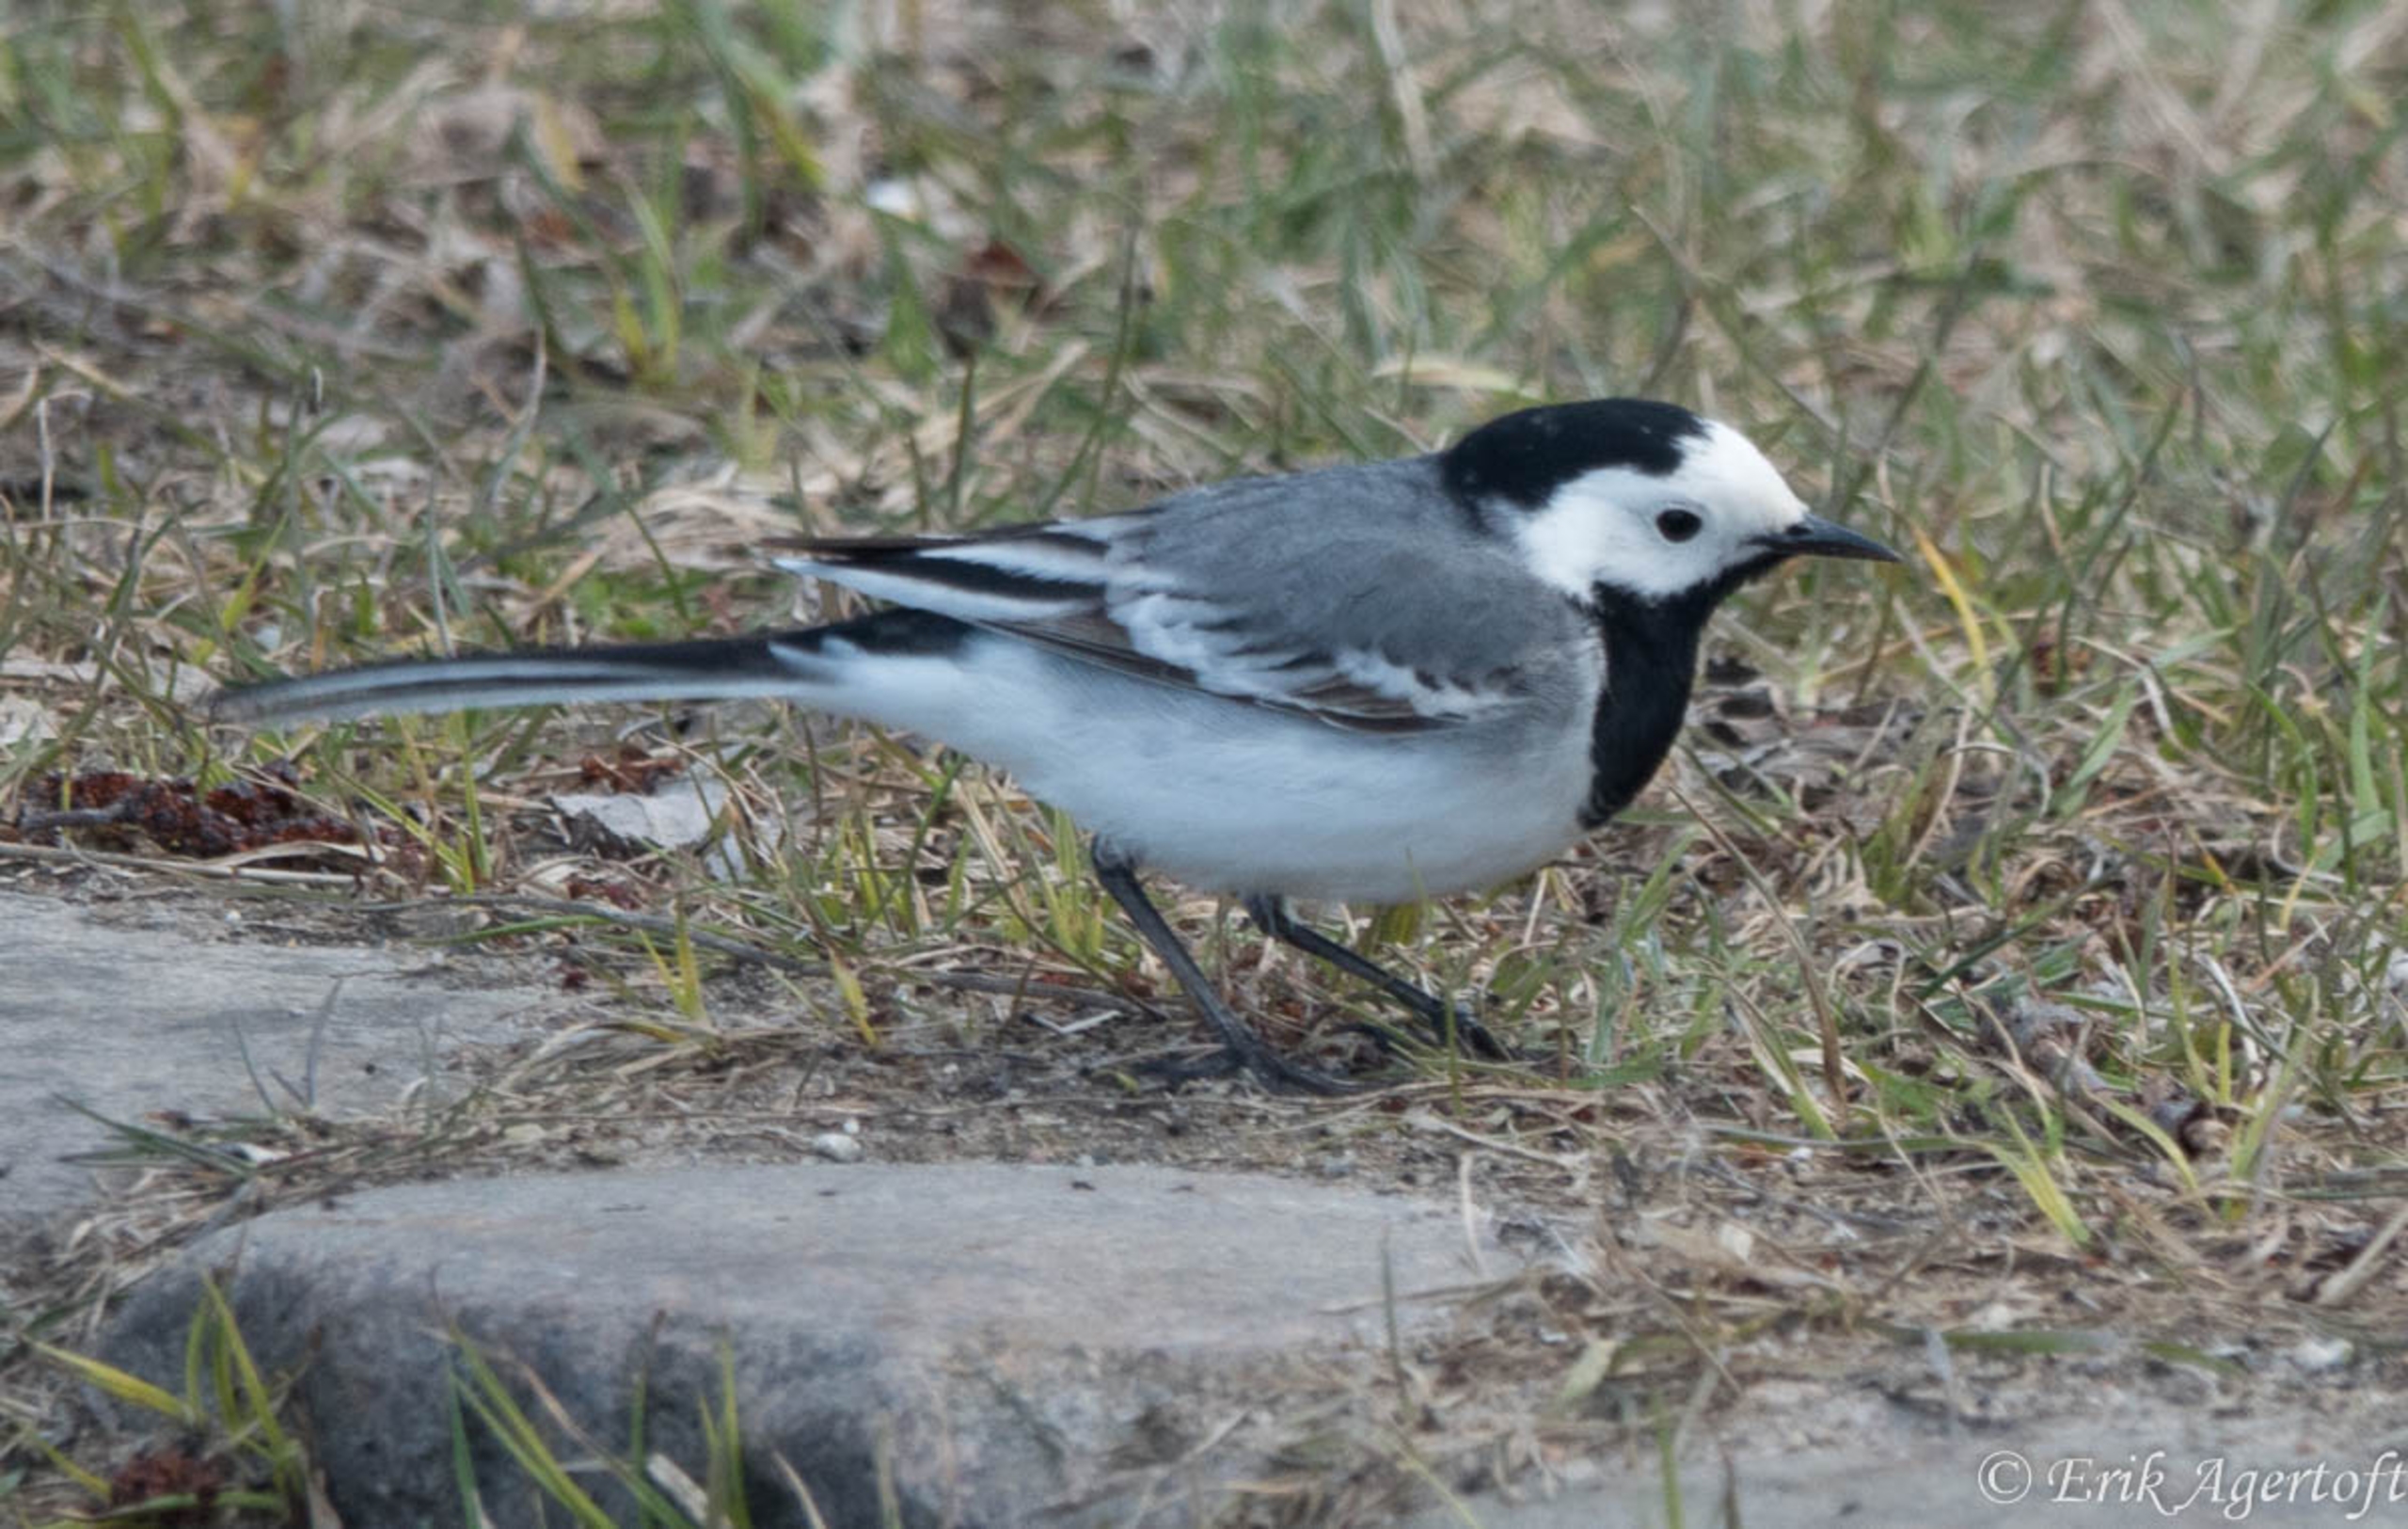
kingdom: Animalia
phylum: Chordata
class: Aves
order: Passeriformes
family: Motacillidae
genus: Motacilla
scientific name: Motacilla alba
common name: Hvid vipstjert
